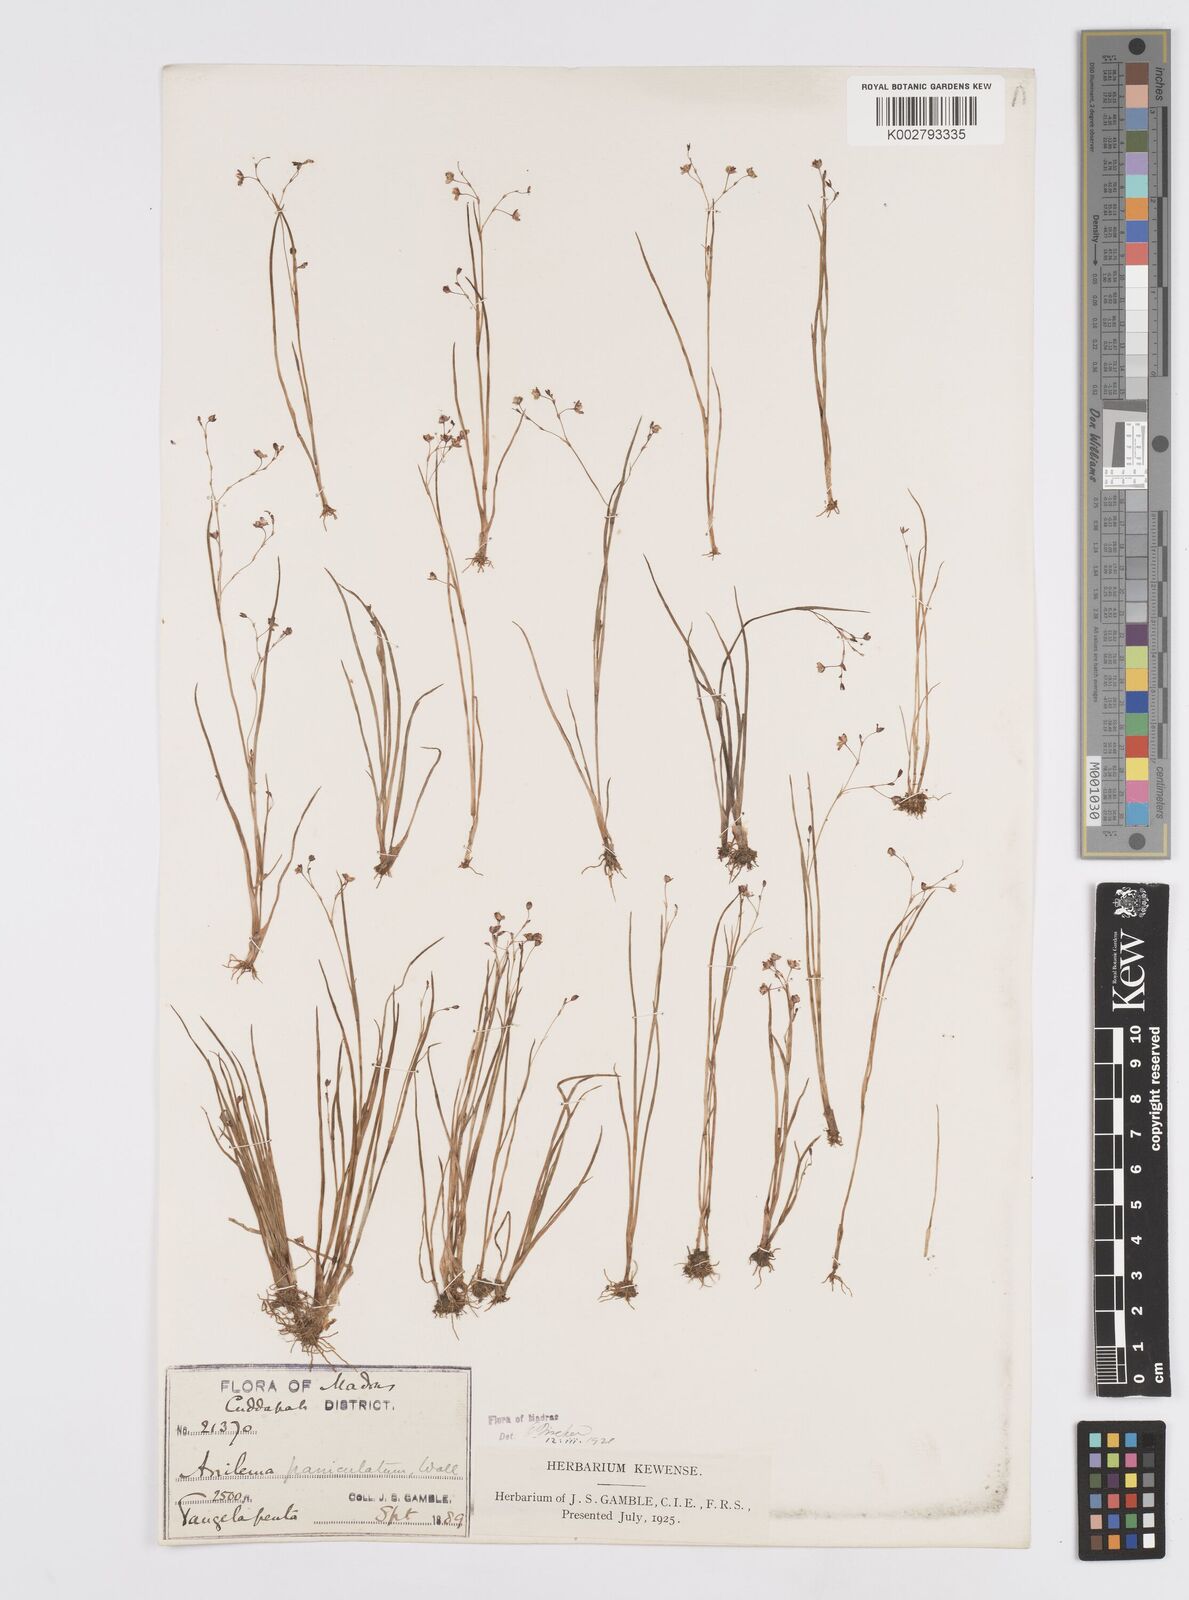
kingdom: Plantae
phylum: Tracheophyta
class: Liliopsida
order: Commelinales
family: Commelinaceae
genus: Murdannia
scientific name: Murdannia semiteres
